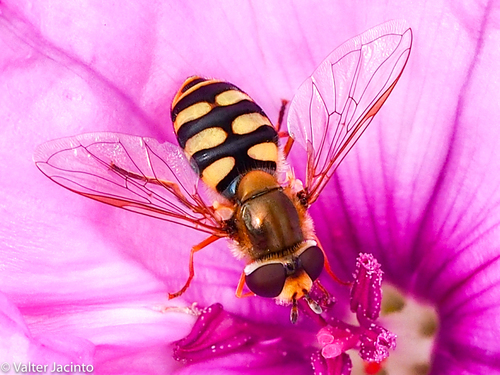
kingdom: Animalia
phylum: Arthropoda
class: Insecta
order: Diptera
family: Syrphidae
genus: Eupeodes
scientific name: Eupeodes corollae
